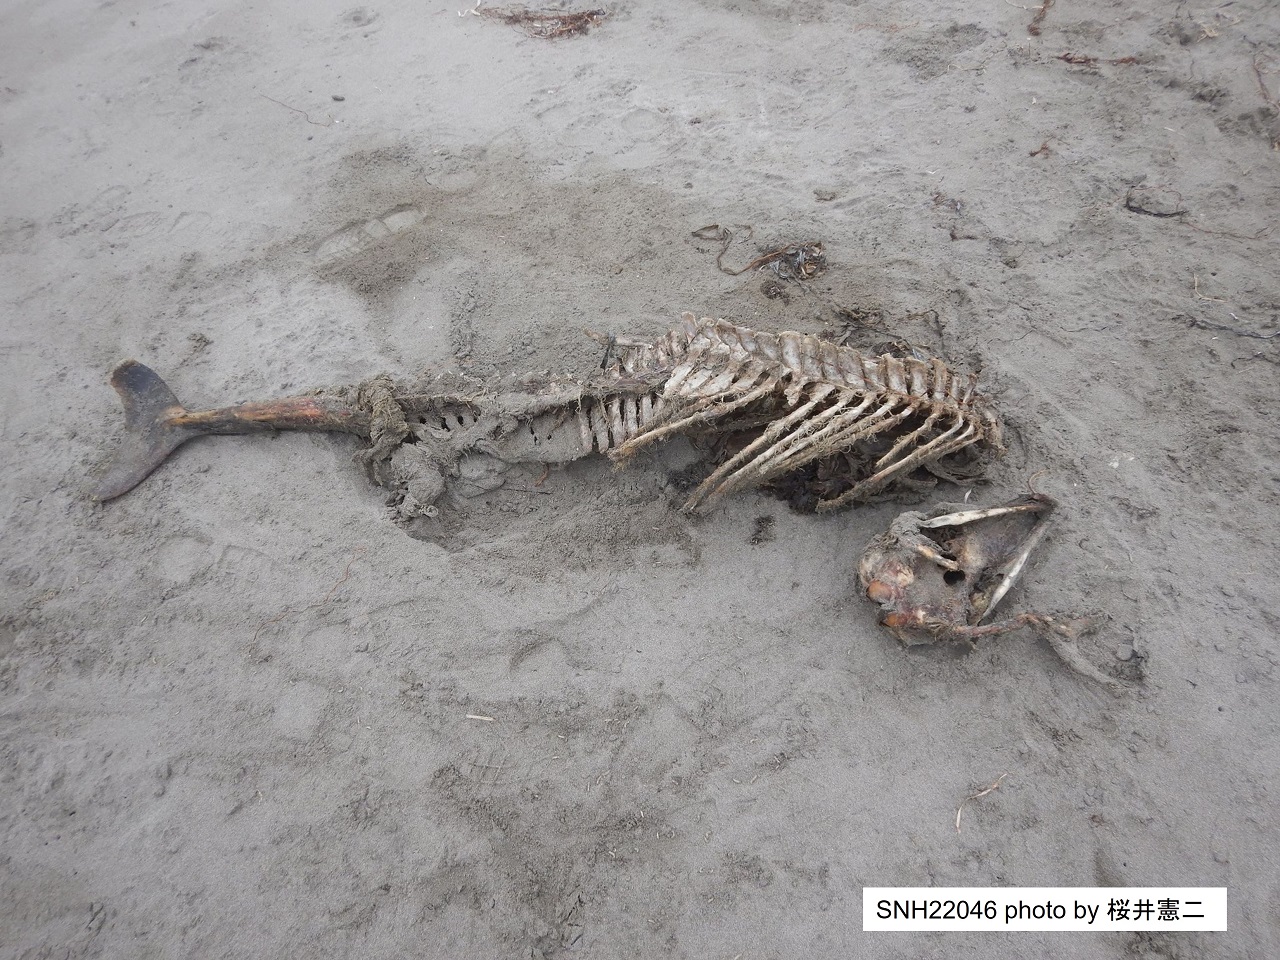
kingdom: Animalia
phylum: Chordata
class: Mammalia
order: Cetacea
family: Phocoenidae
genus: Phocoena
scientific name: Phocoena phocoena
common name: Harbour porpoise
